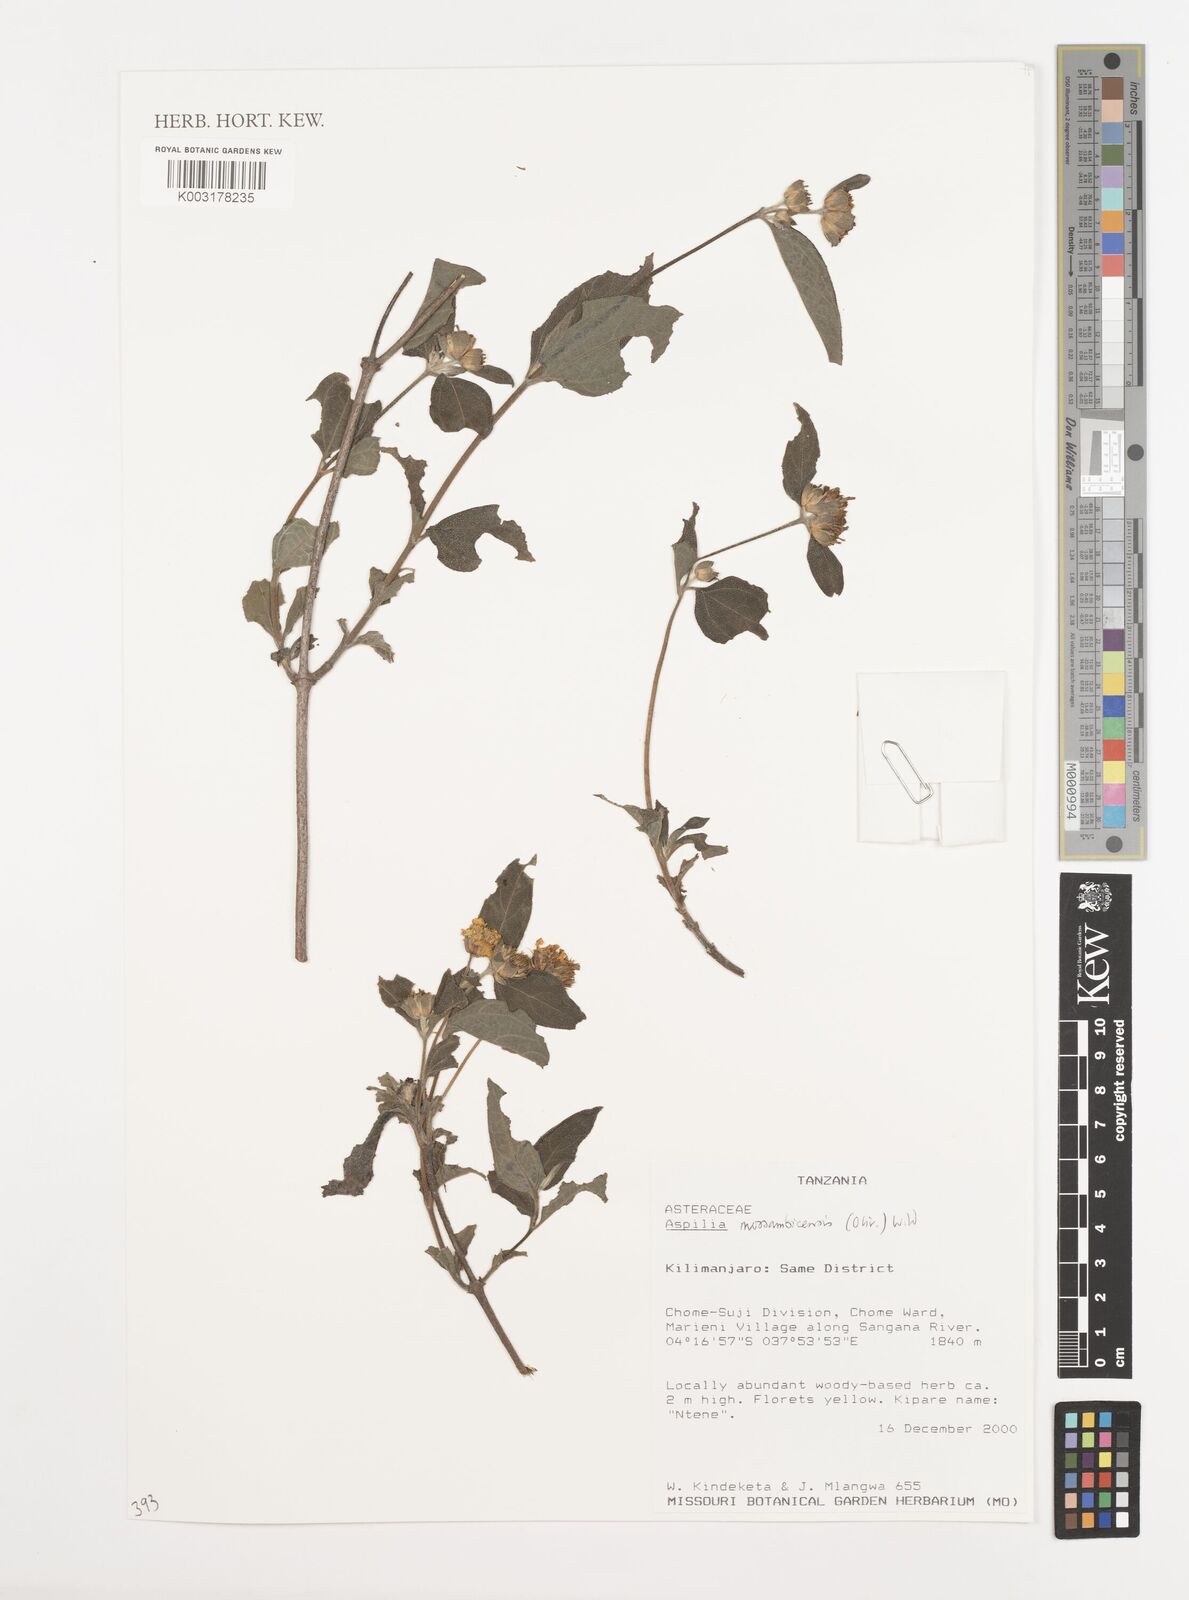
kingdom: Plantae
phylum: Tracheophyta
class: Magnoliopsida
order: Asterales
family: Asteraceae
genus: Aspilia
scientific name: Aspilia mossambicensis
